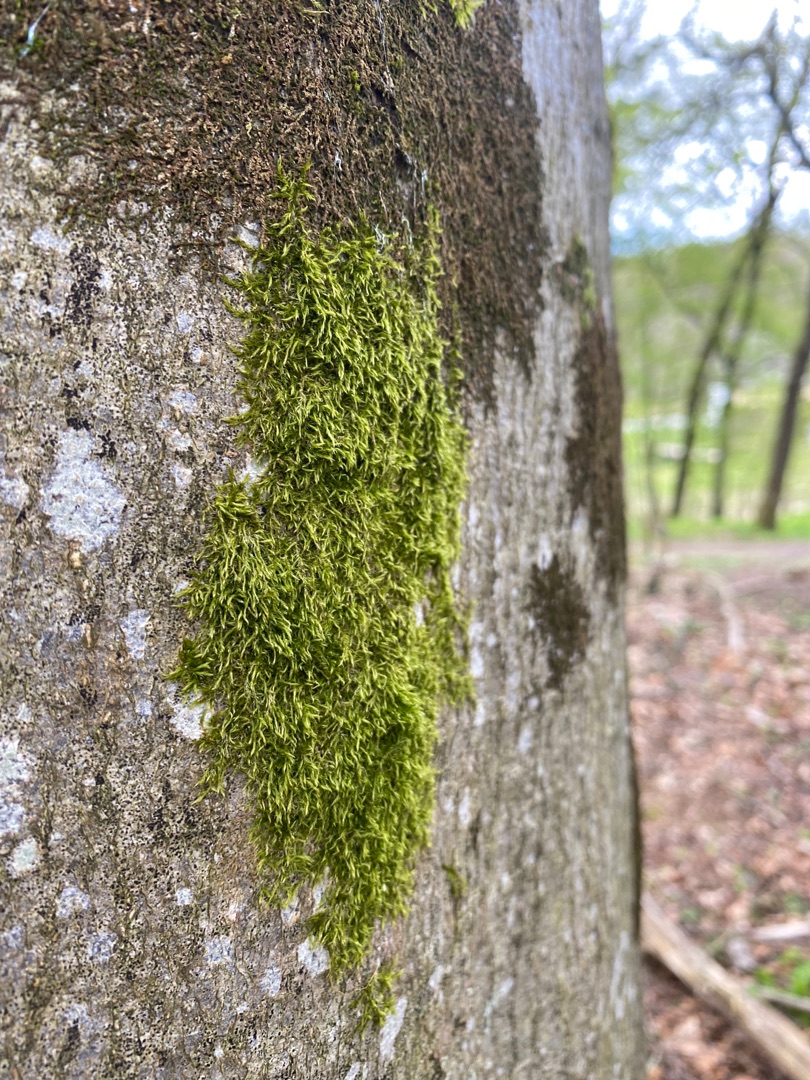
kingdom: Plantae
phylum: Bryophyta
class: Bryopsida
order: Hypnales
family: Hypnaceae
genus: Hypnum
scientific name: Hypnum
